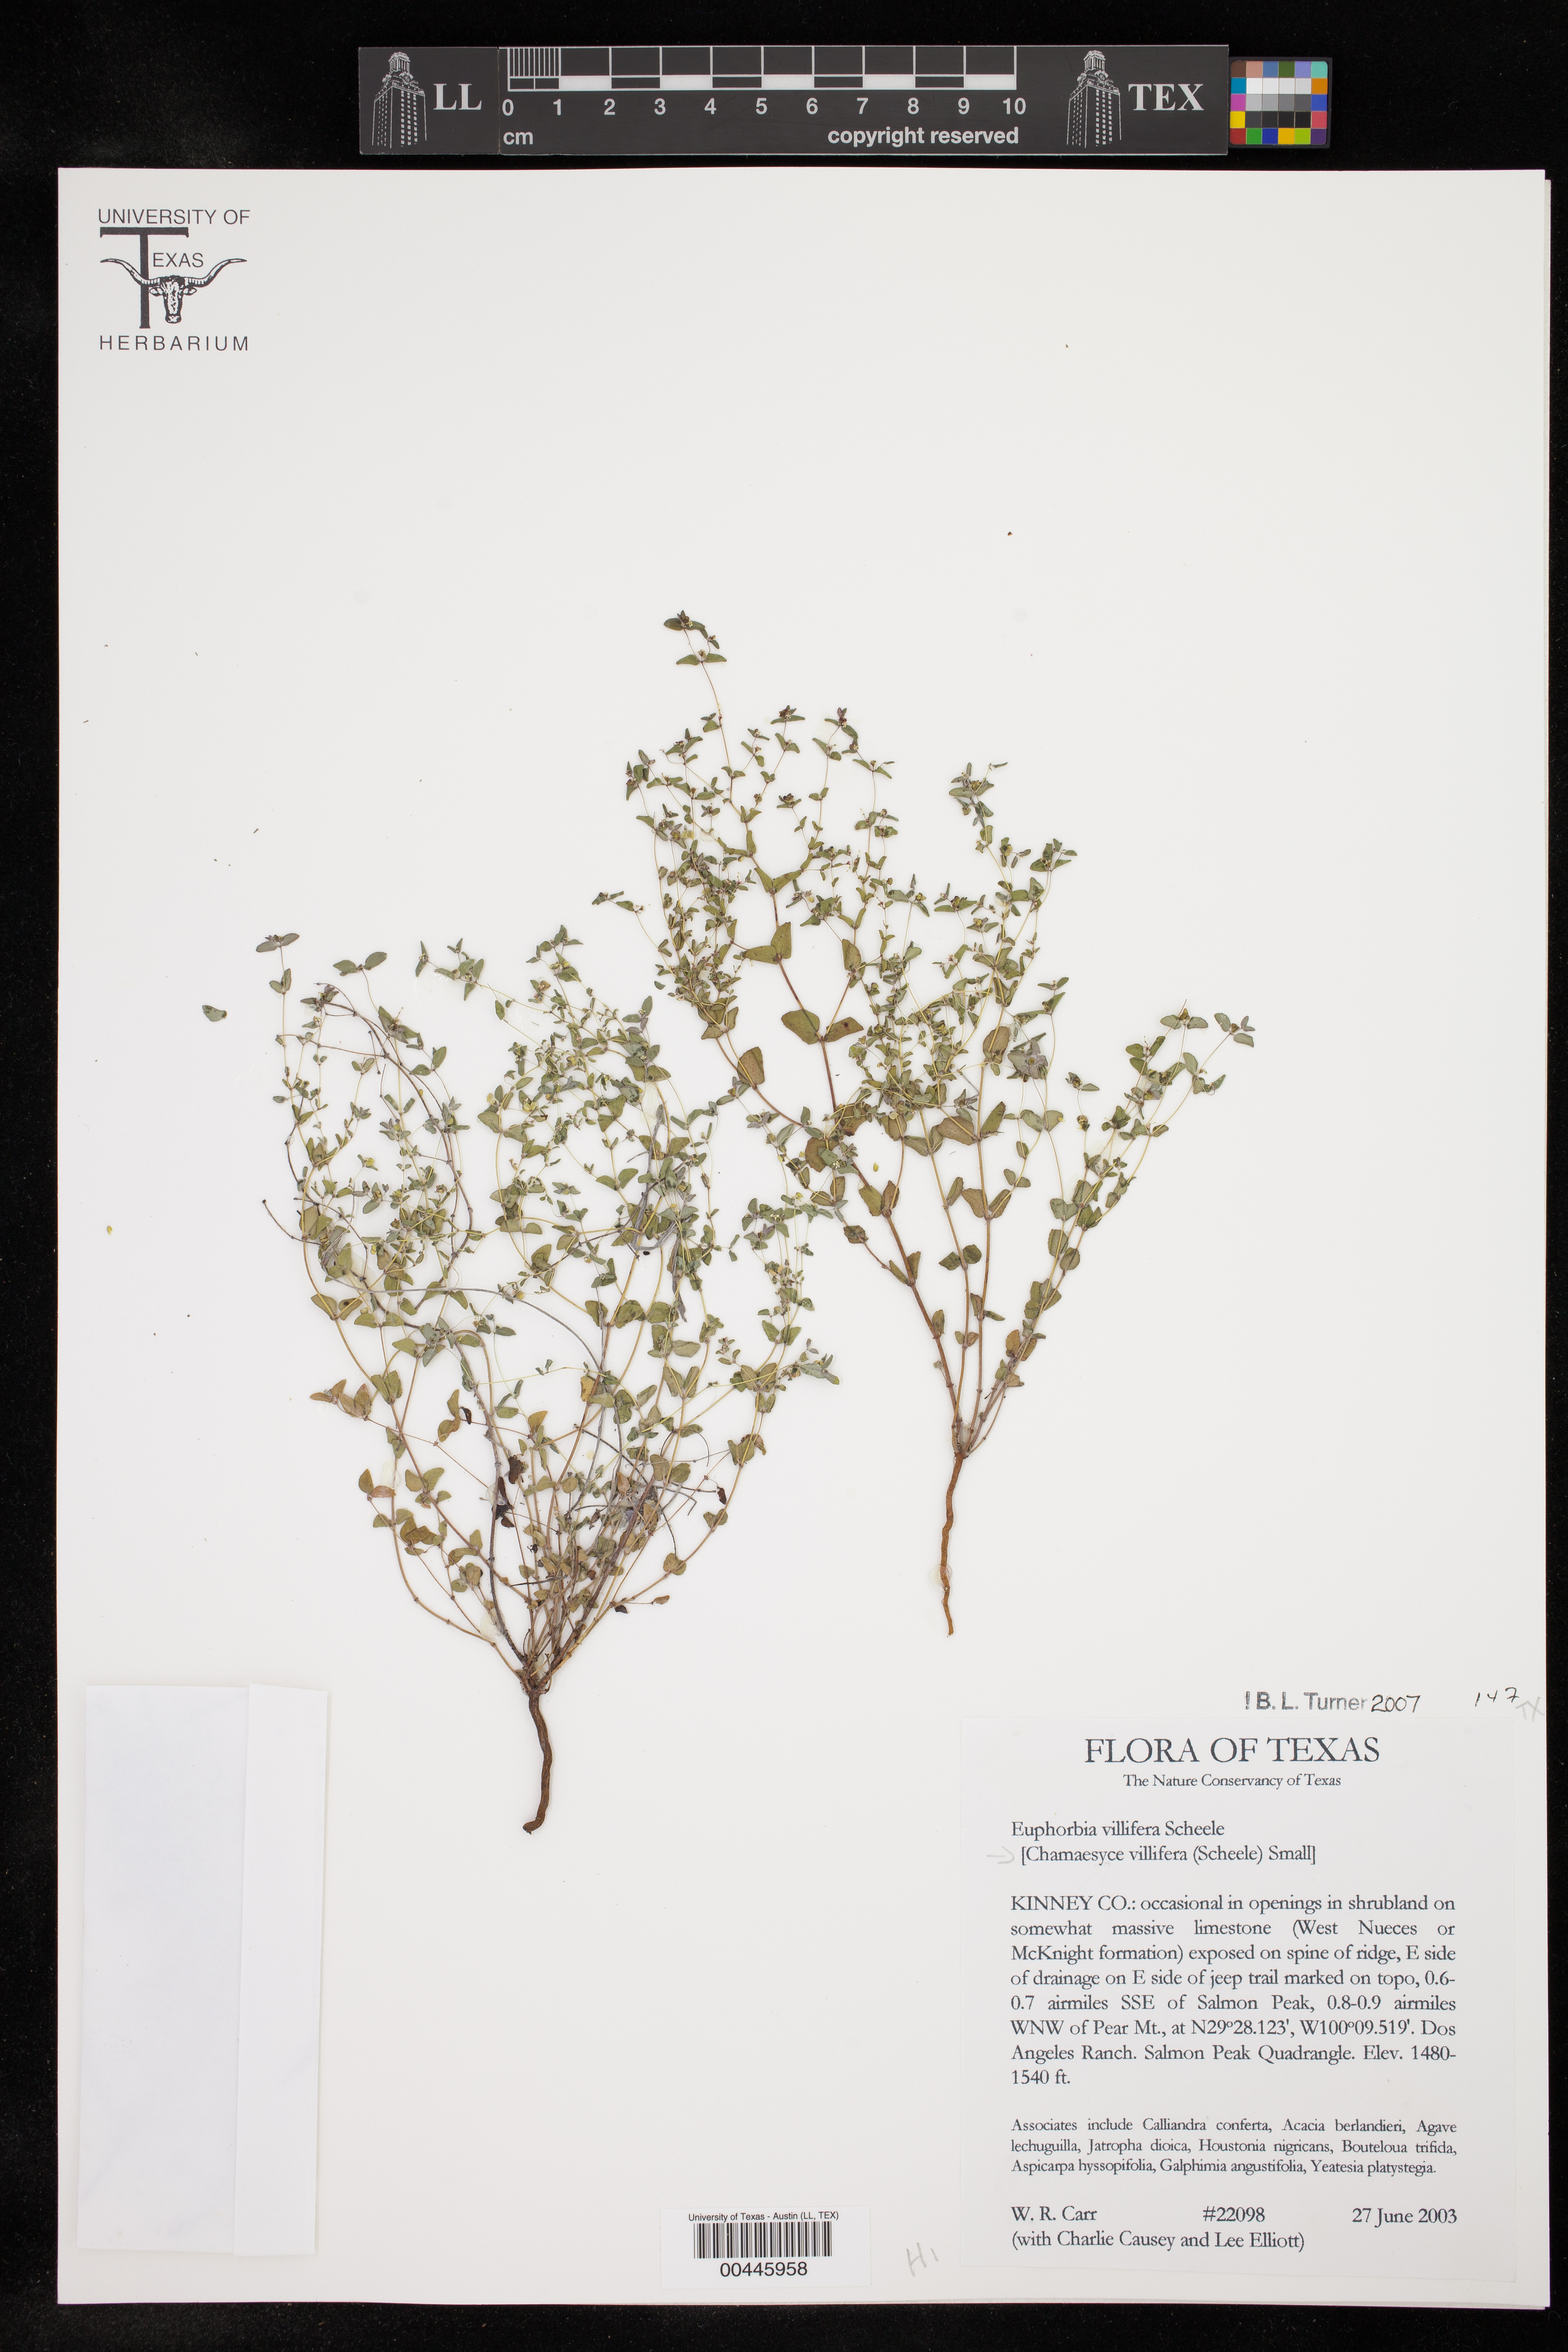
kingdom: Plantae
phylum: Tracheophyta
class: Magnoliopsida
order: Malpighiales
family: Euphorbiaceae
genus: Euphorbia
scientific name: Euphorbia villifera
